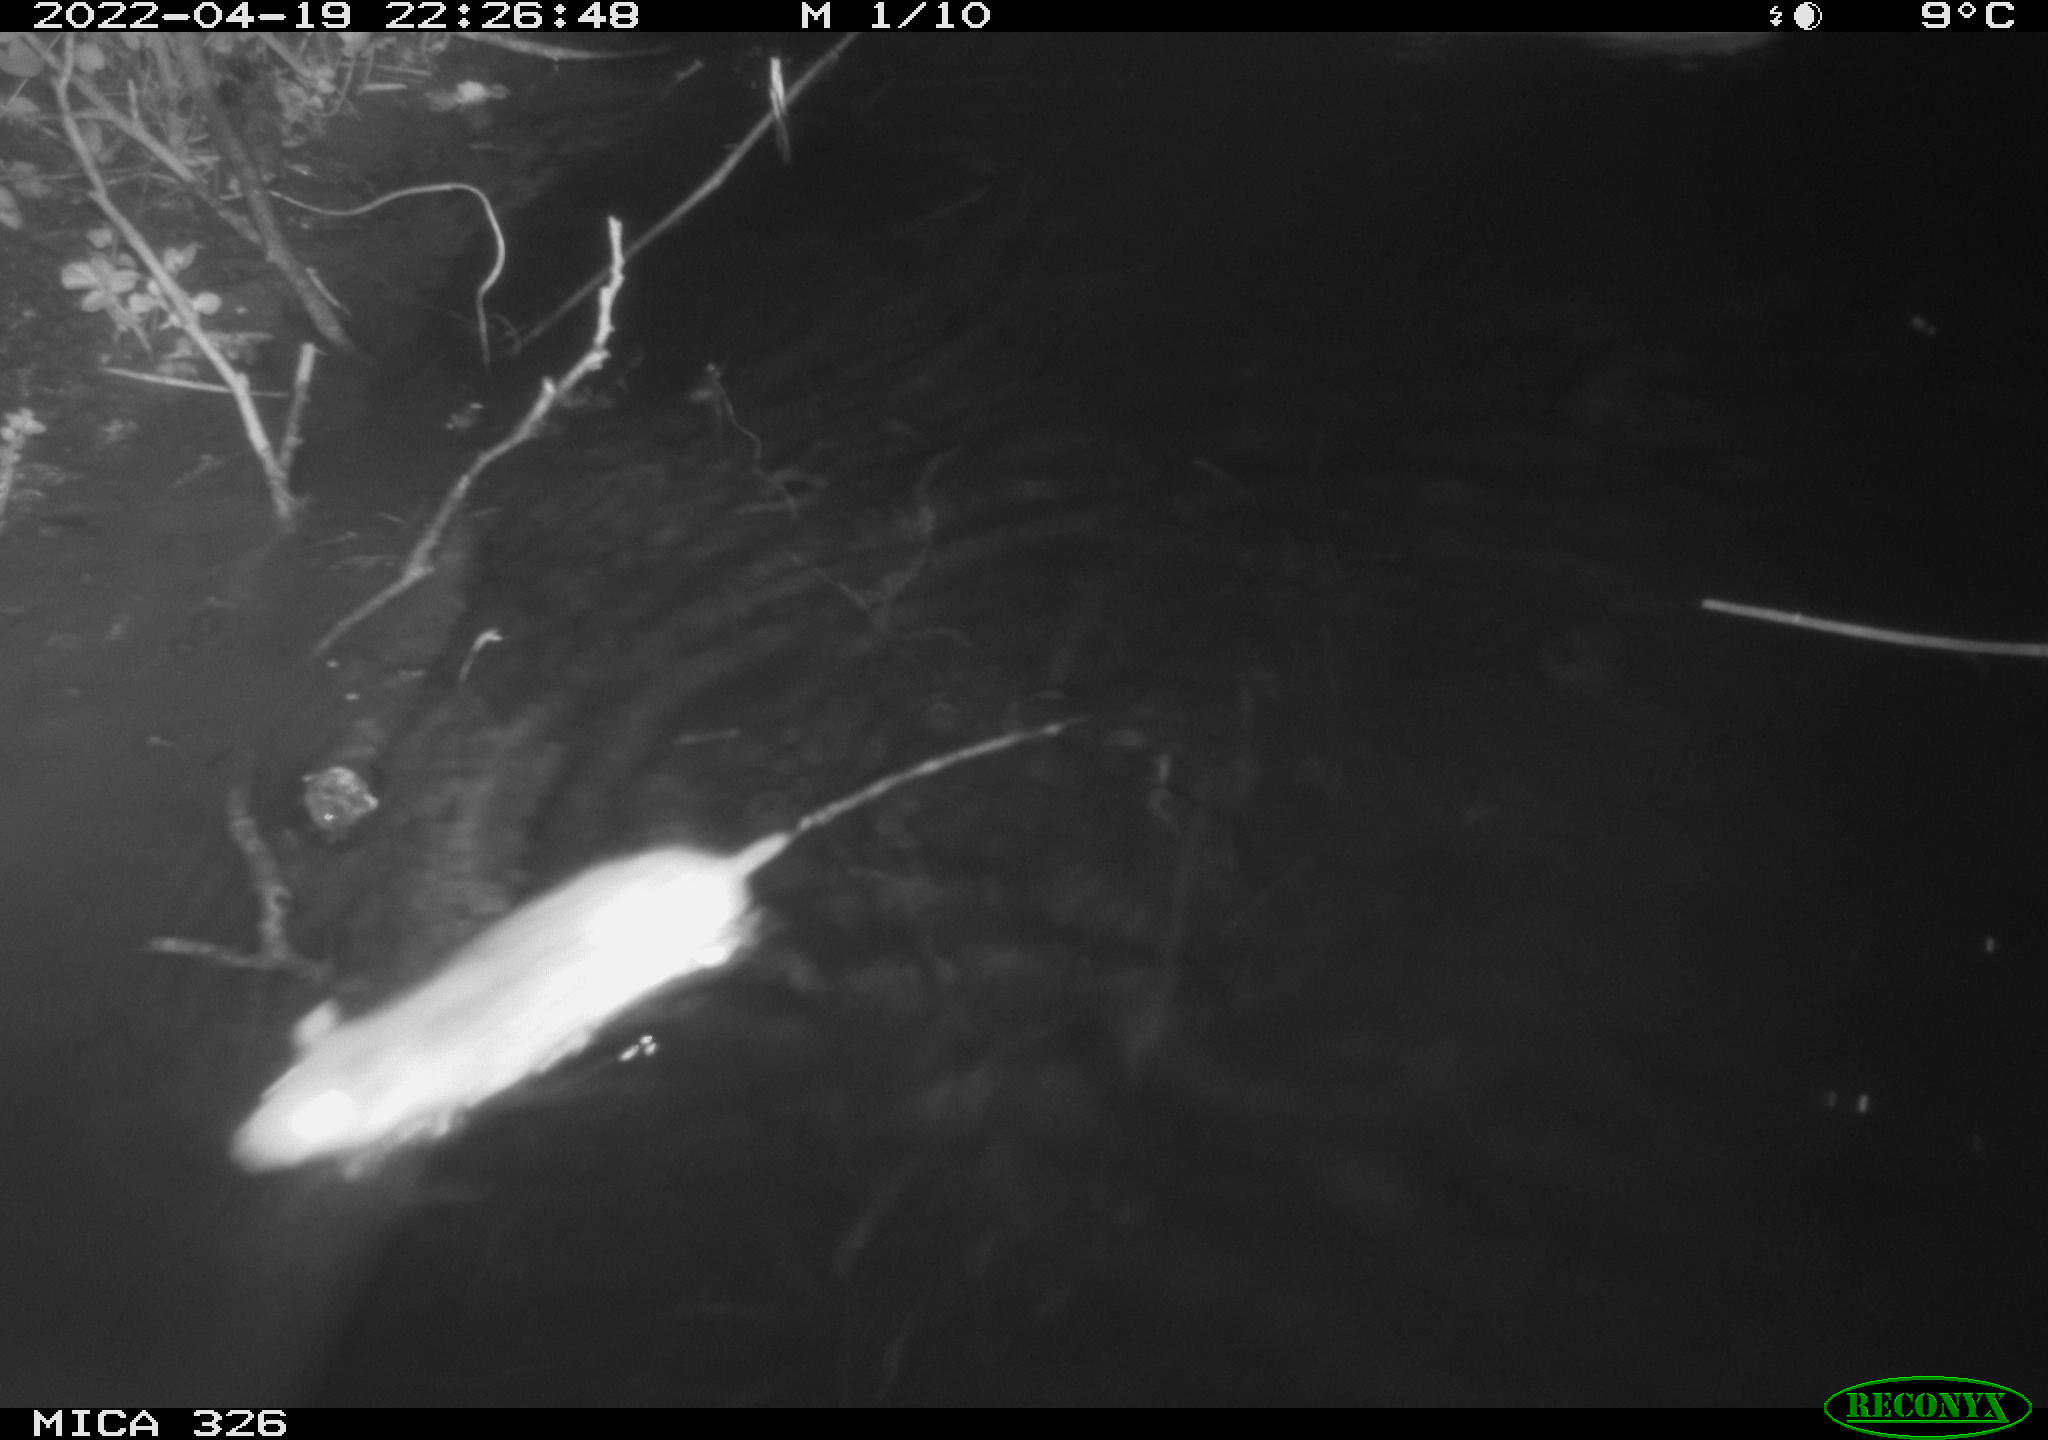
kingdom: Animalia
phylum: Chordata
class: Mammalia
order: Rodentia
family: Muridae
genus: Rattus
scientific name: Rattus norvegicus
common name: Brown rat
